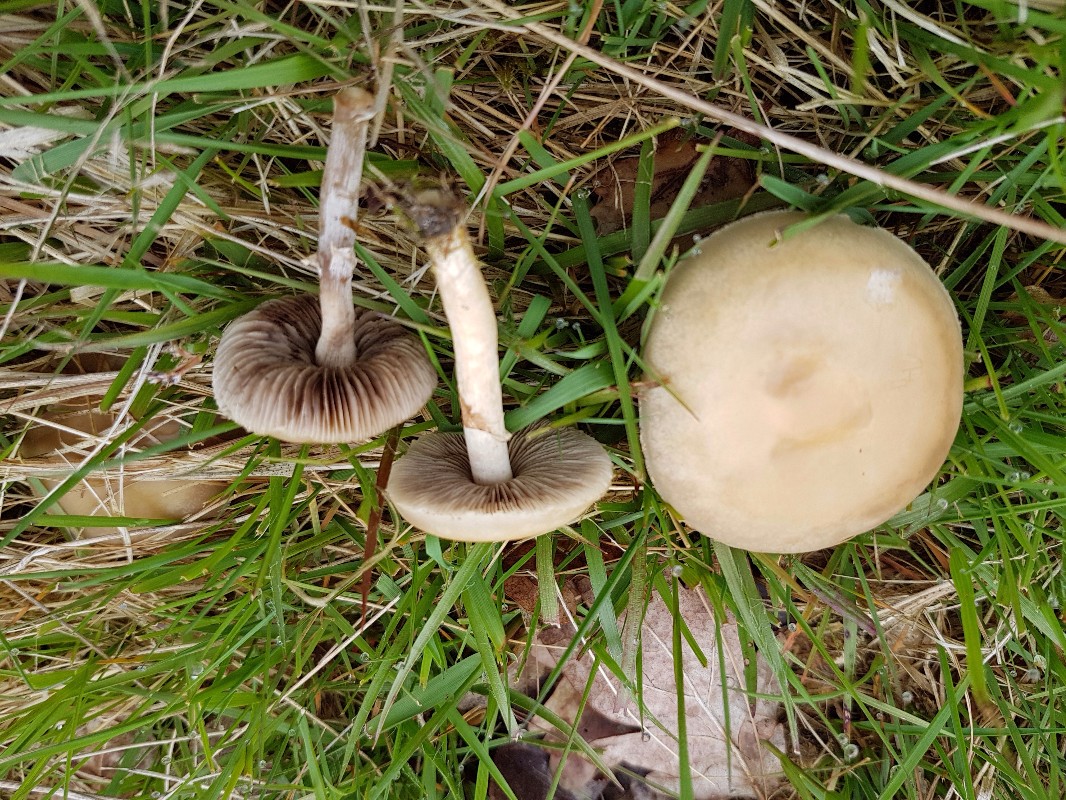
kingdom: Fungi
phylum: Basidiomycota
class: Agaricomycetes
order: Agaricales
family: Strophariaceae
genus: Agrocybe
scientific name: Agrocybe praecox
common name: tidlig agerhat
